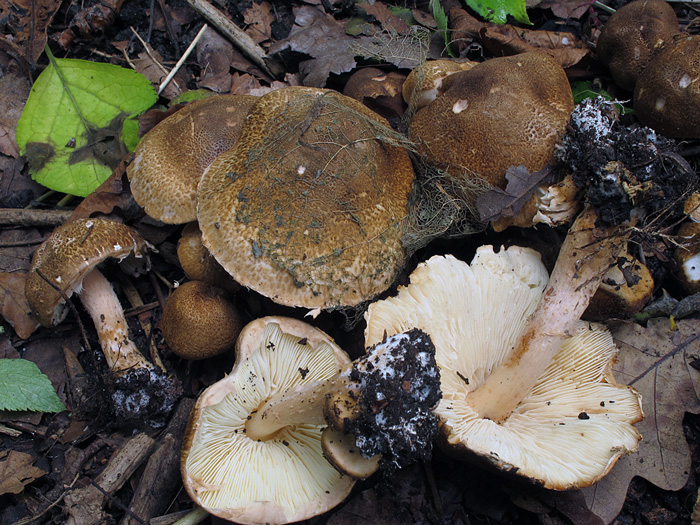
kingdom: Fungi
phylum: Basidiomycota
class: Agaricomycetes
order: Agaricales
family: Agaricaceae
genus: Leucocoprinus
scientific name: Leucocoprinus straminellus
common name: rustbrun parasolhat
